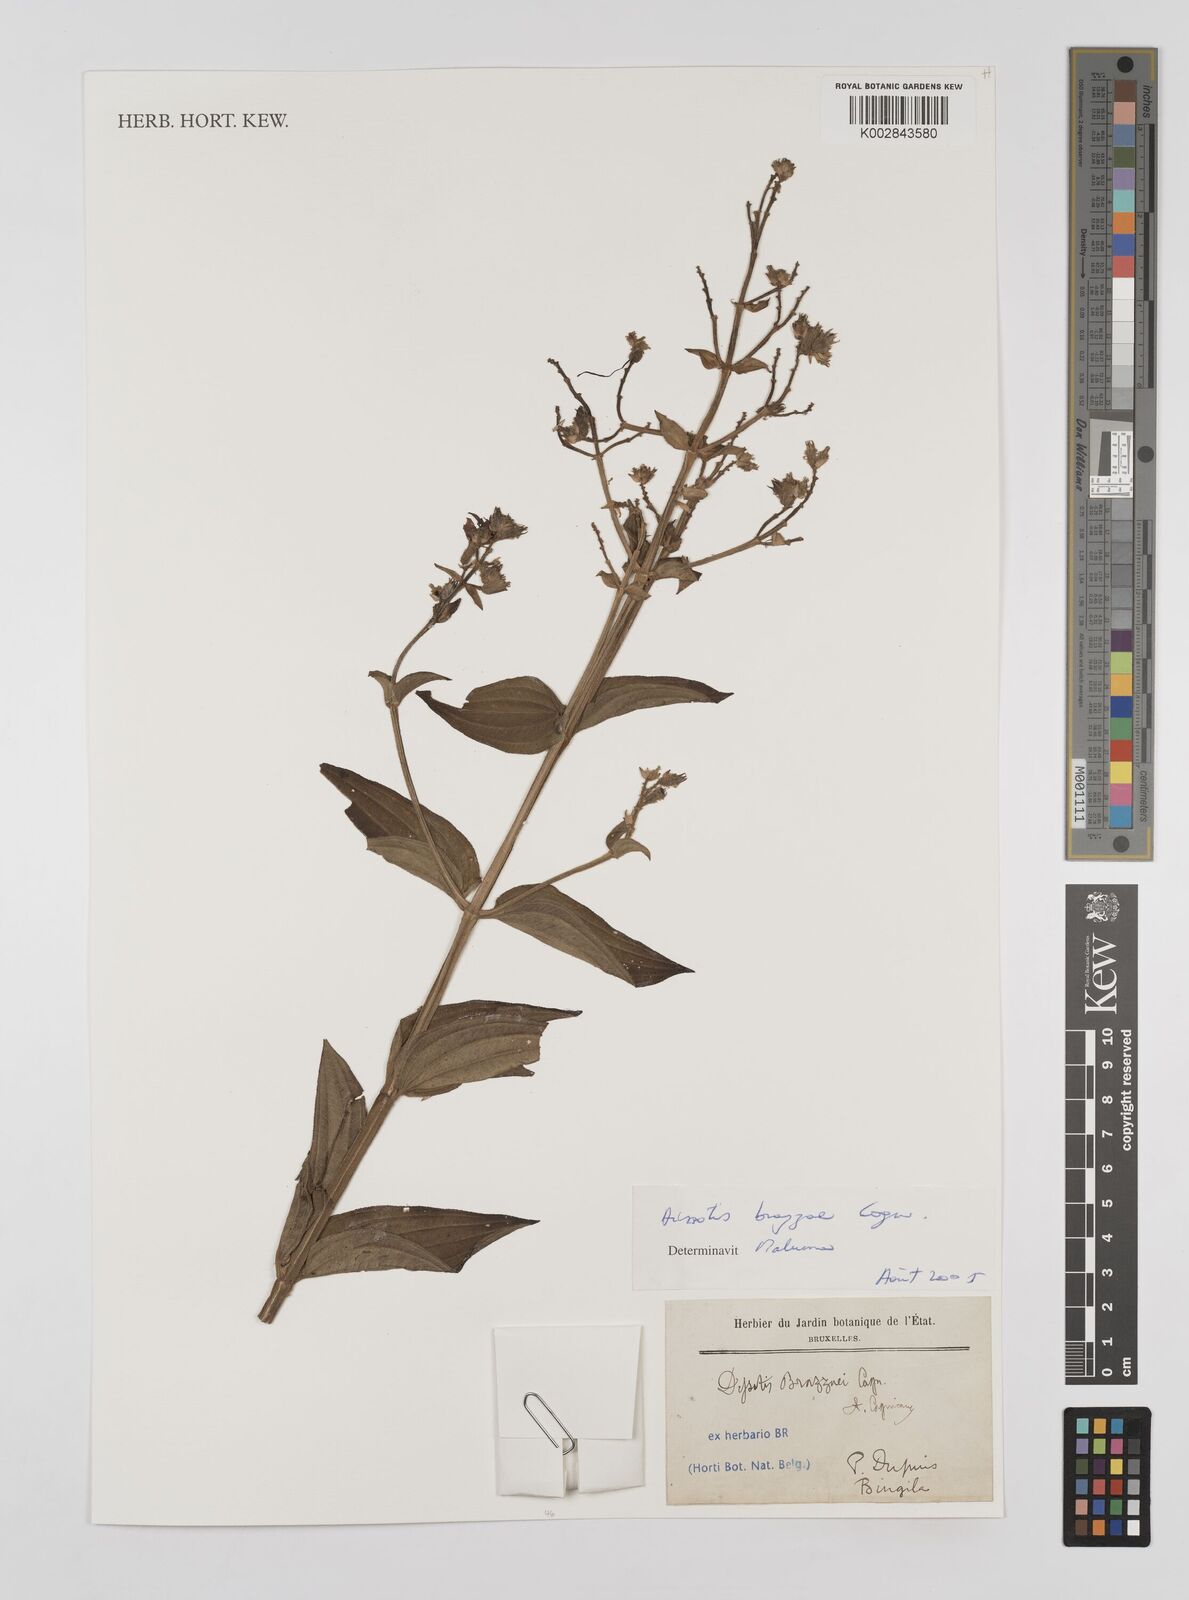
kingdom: Plantae
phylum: Tracheophyta
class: Magnoliopsida
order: Myrtales
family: Melastomataceae
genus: Dupineta
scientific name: Dupineta brazzae
